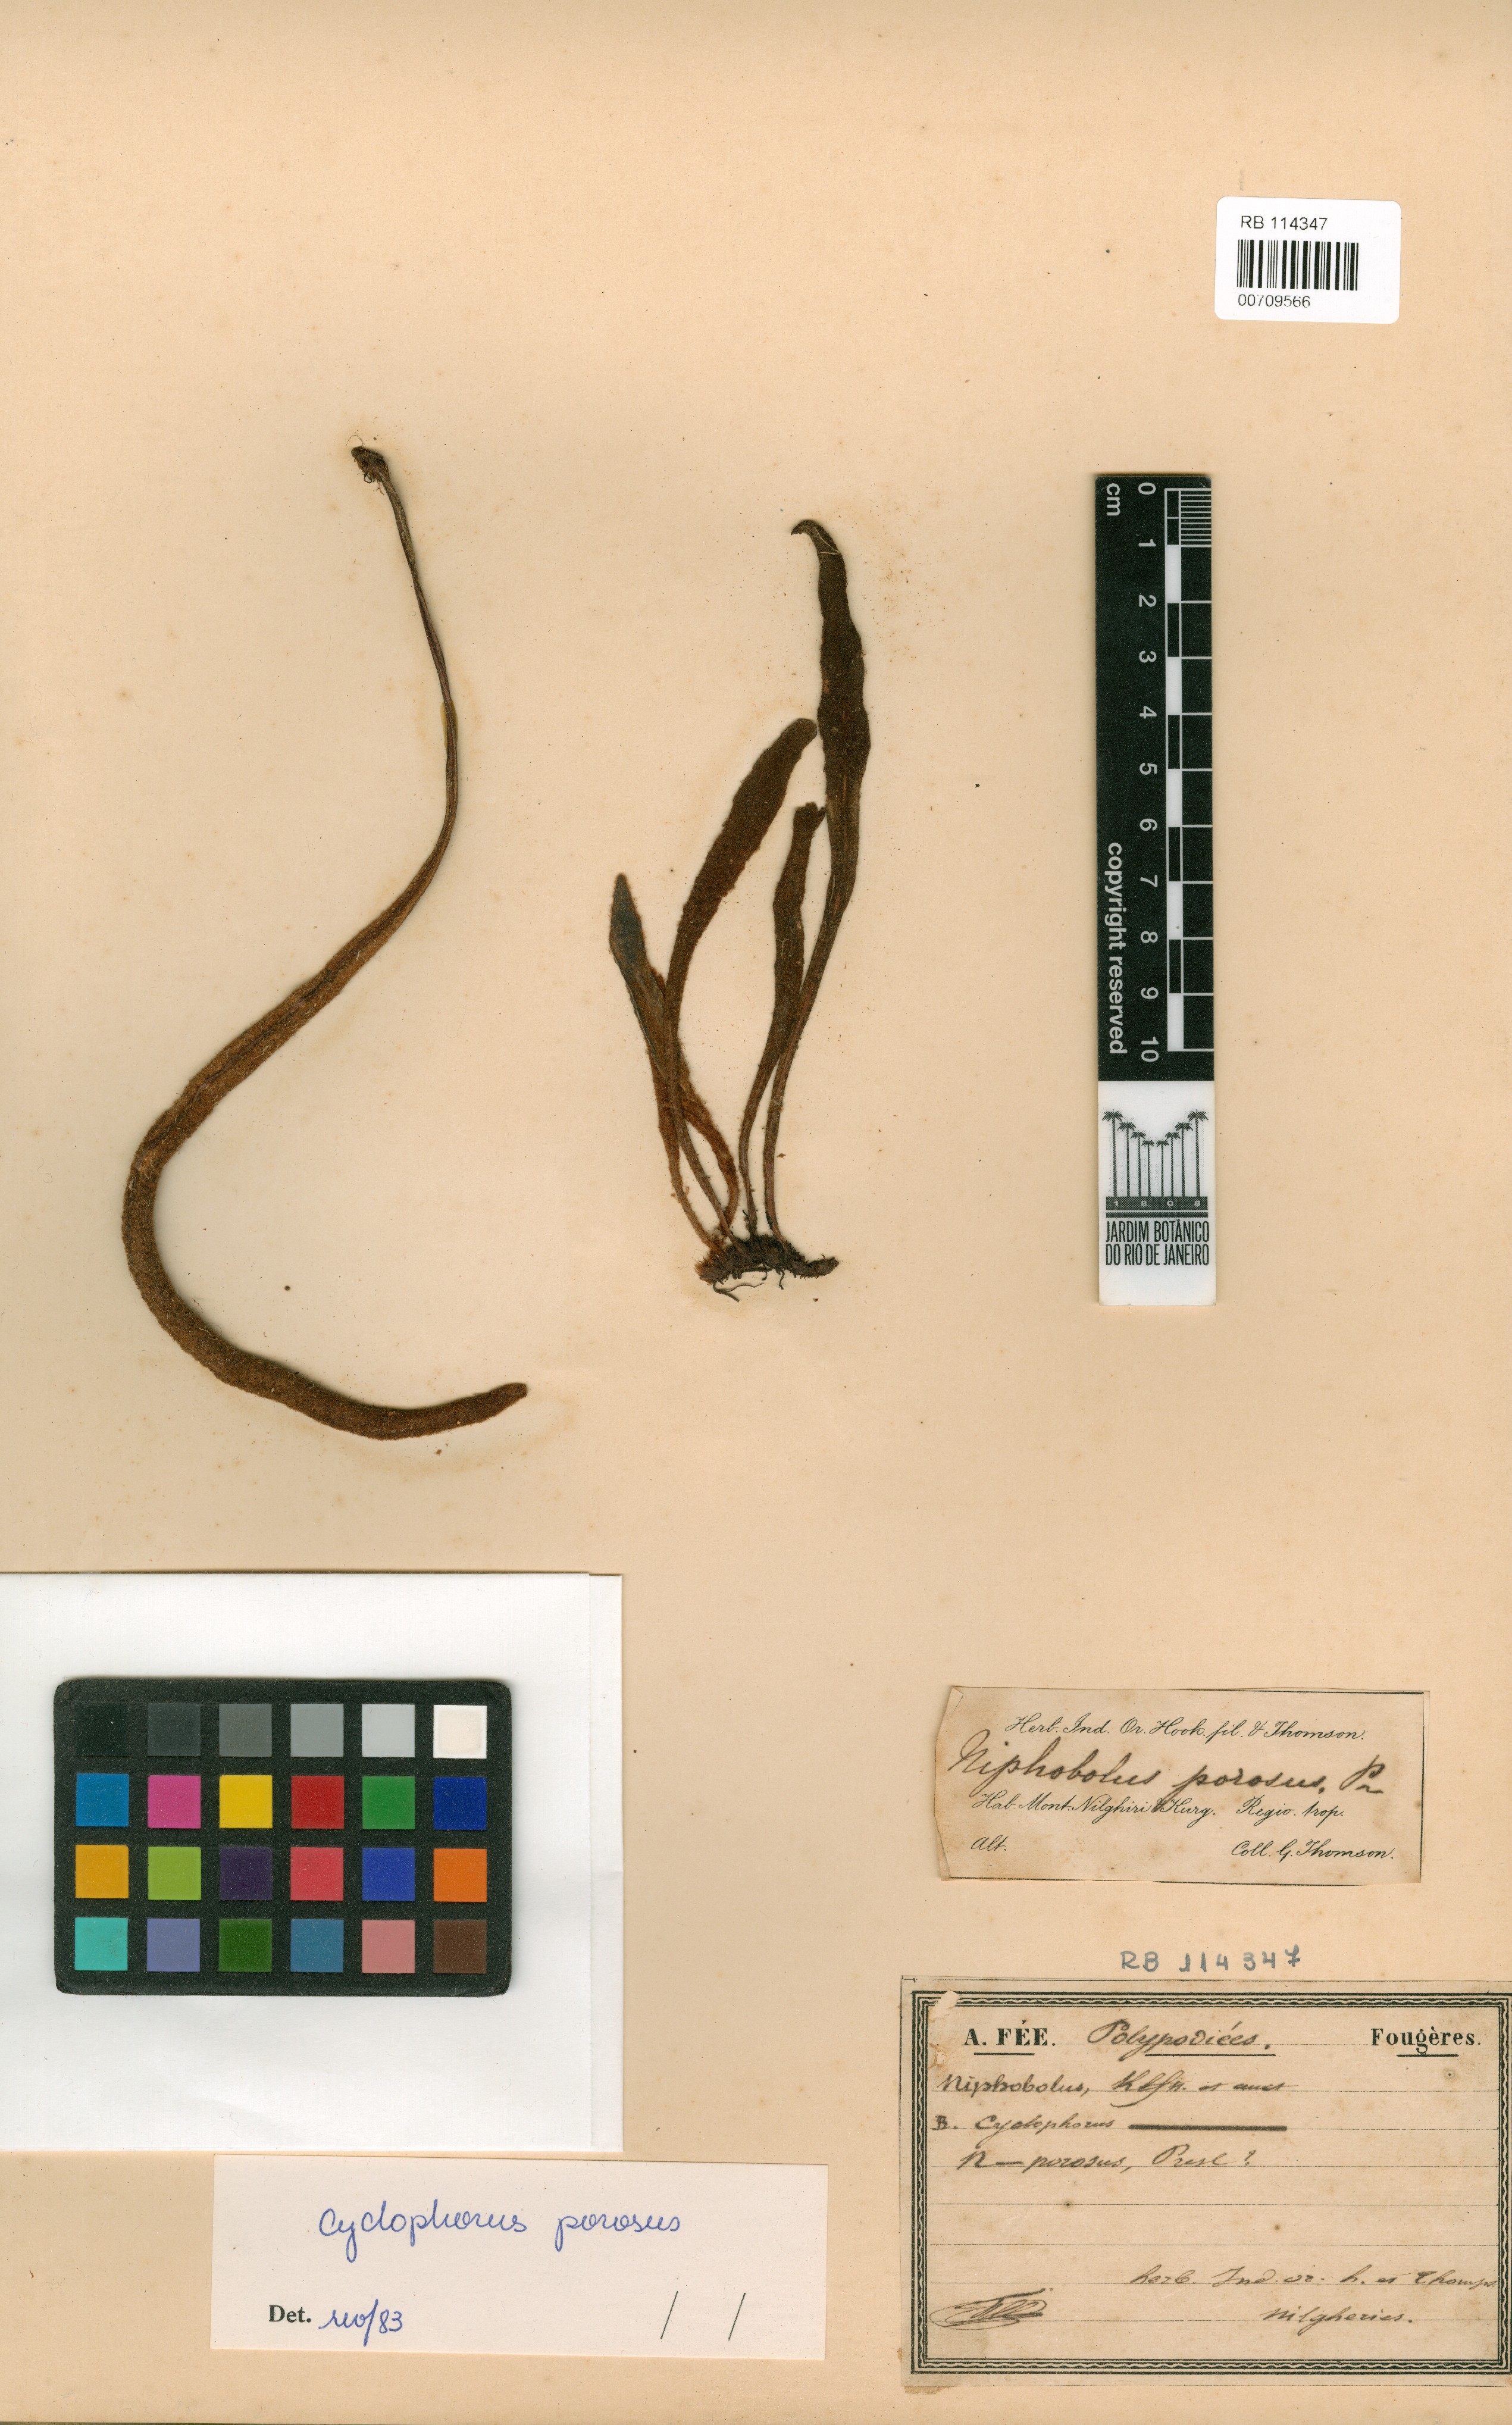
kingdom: Plantae
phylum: Tracheophyta
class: Polypodiopsida
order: Polypodiales
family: Polypodiaceae
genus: Pyrrosia
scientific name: Pyrrosia porosa
